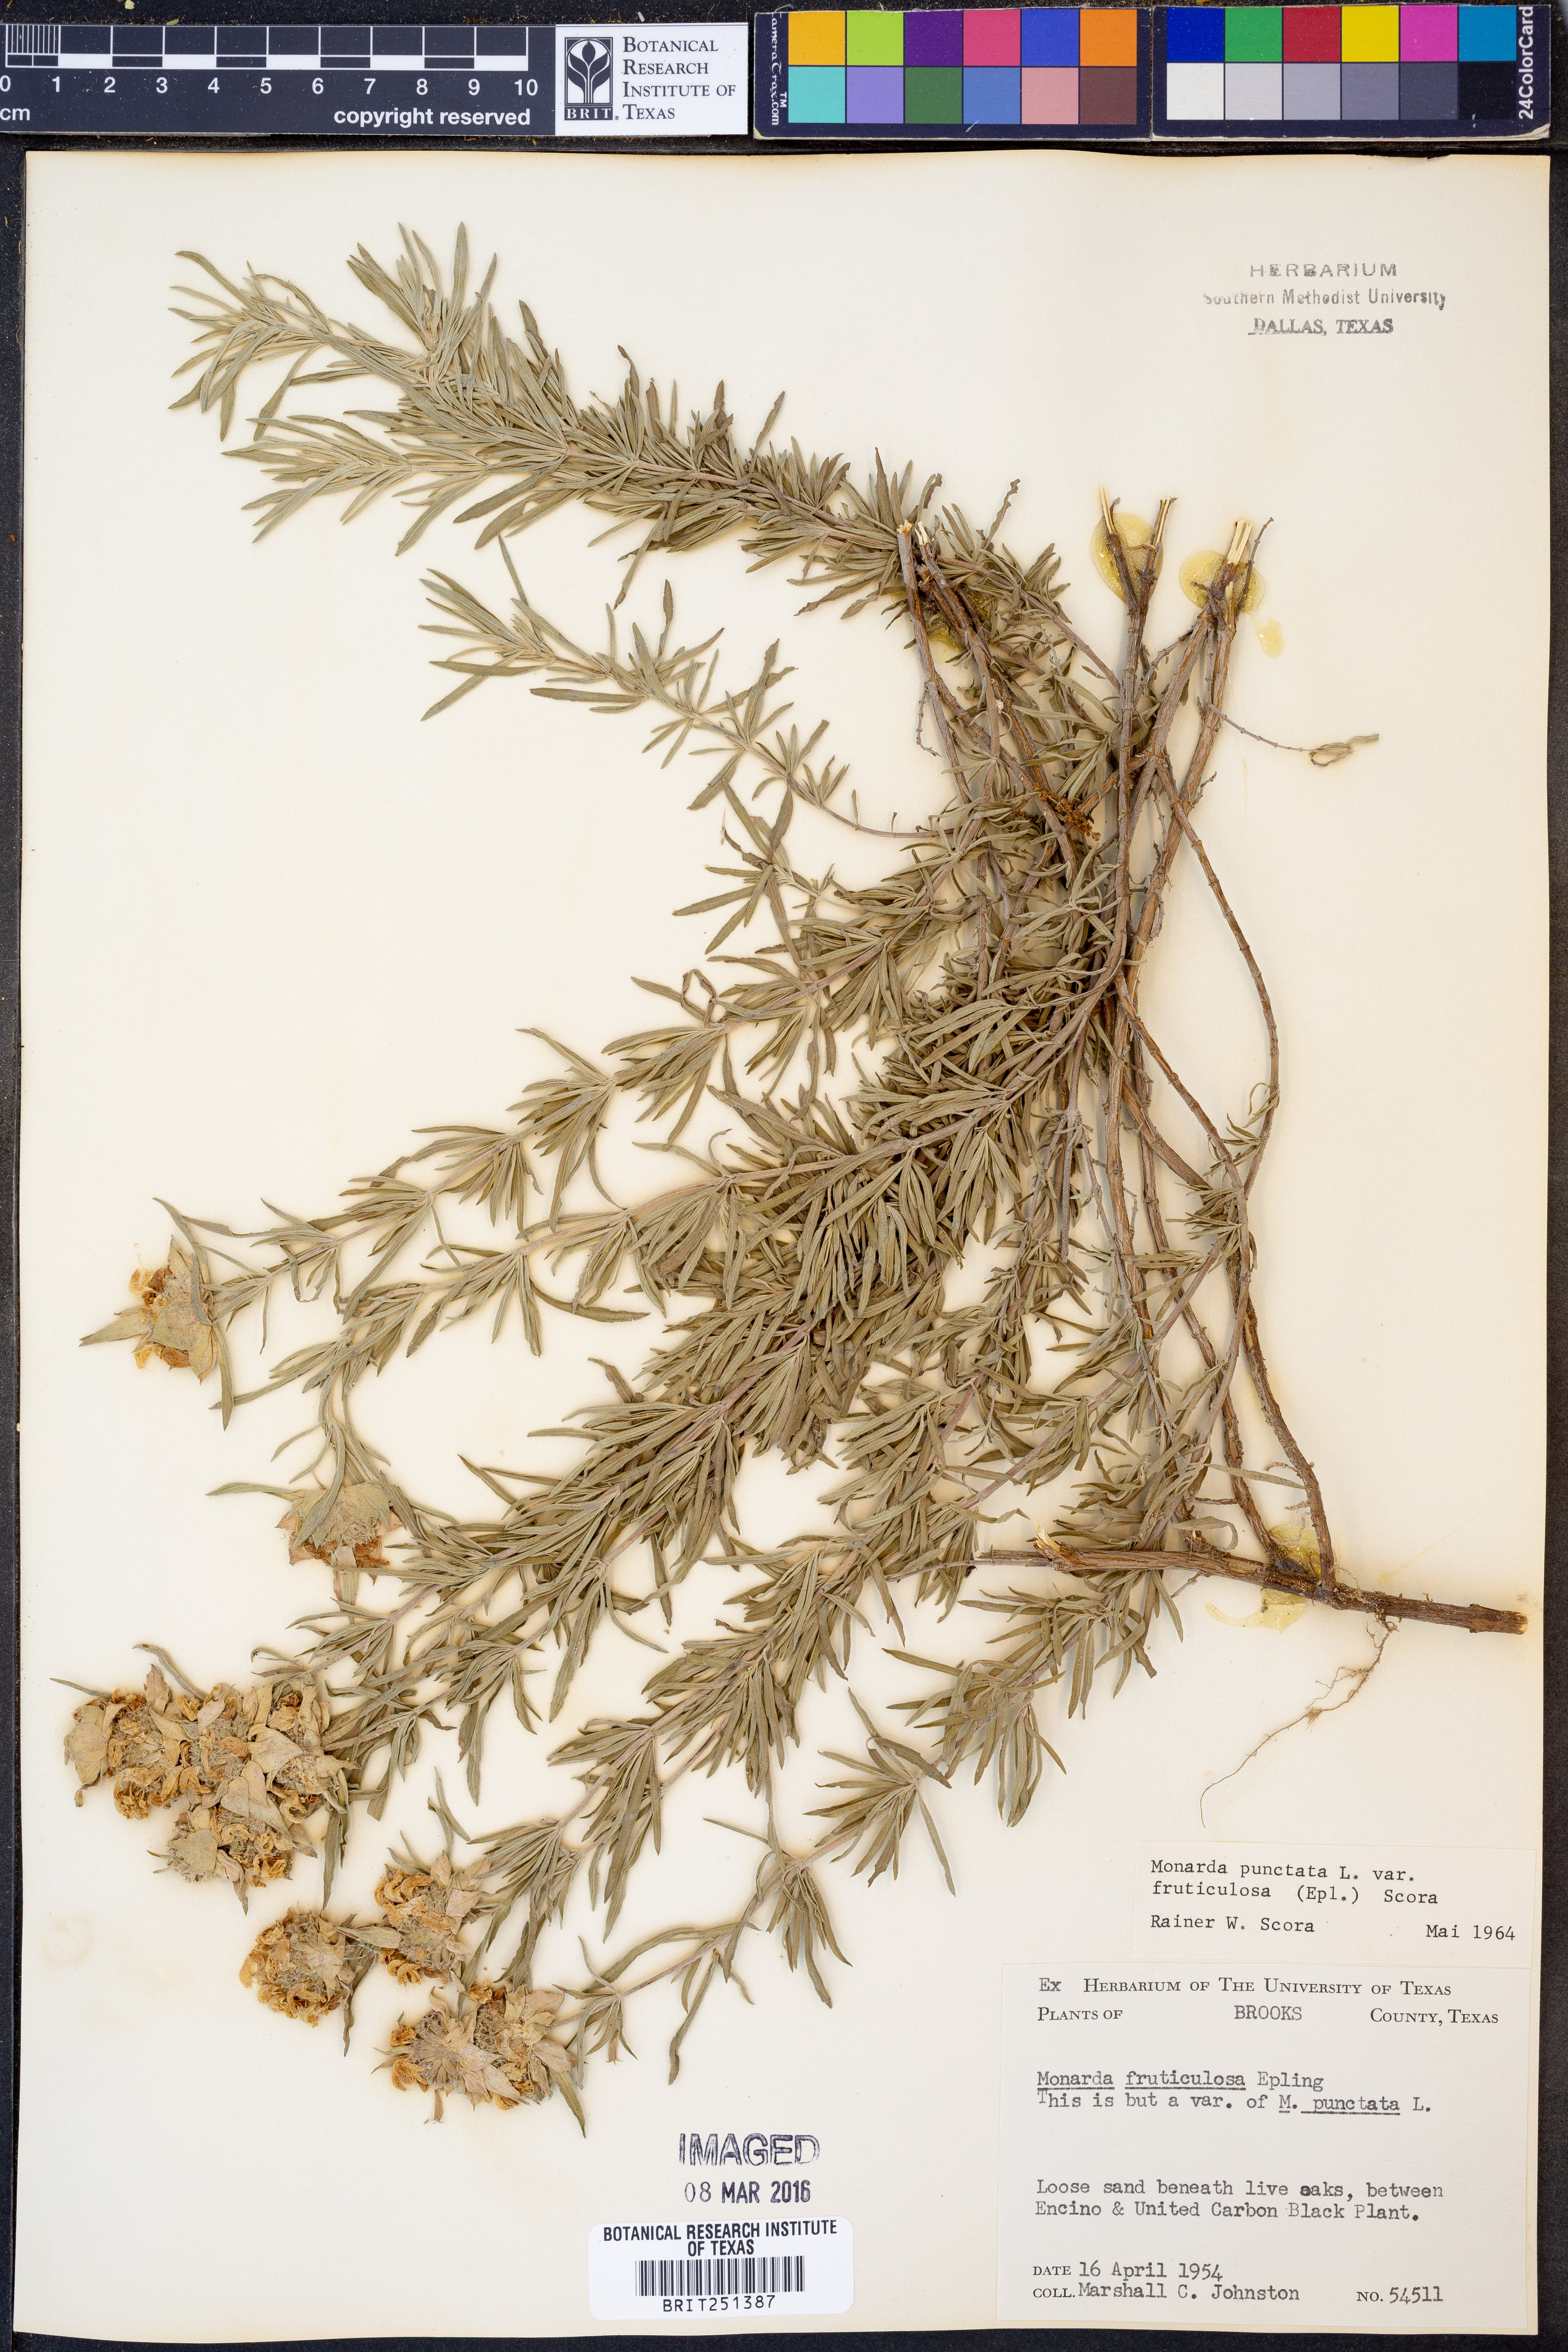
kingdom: Plantae
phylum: Tracheophyta
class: Magnoliopsida
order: Lamiales
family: Lamiaceae
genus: Monarda
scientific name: Monarda fruticulosa
